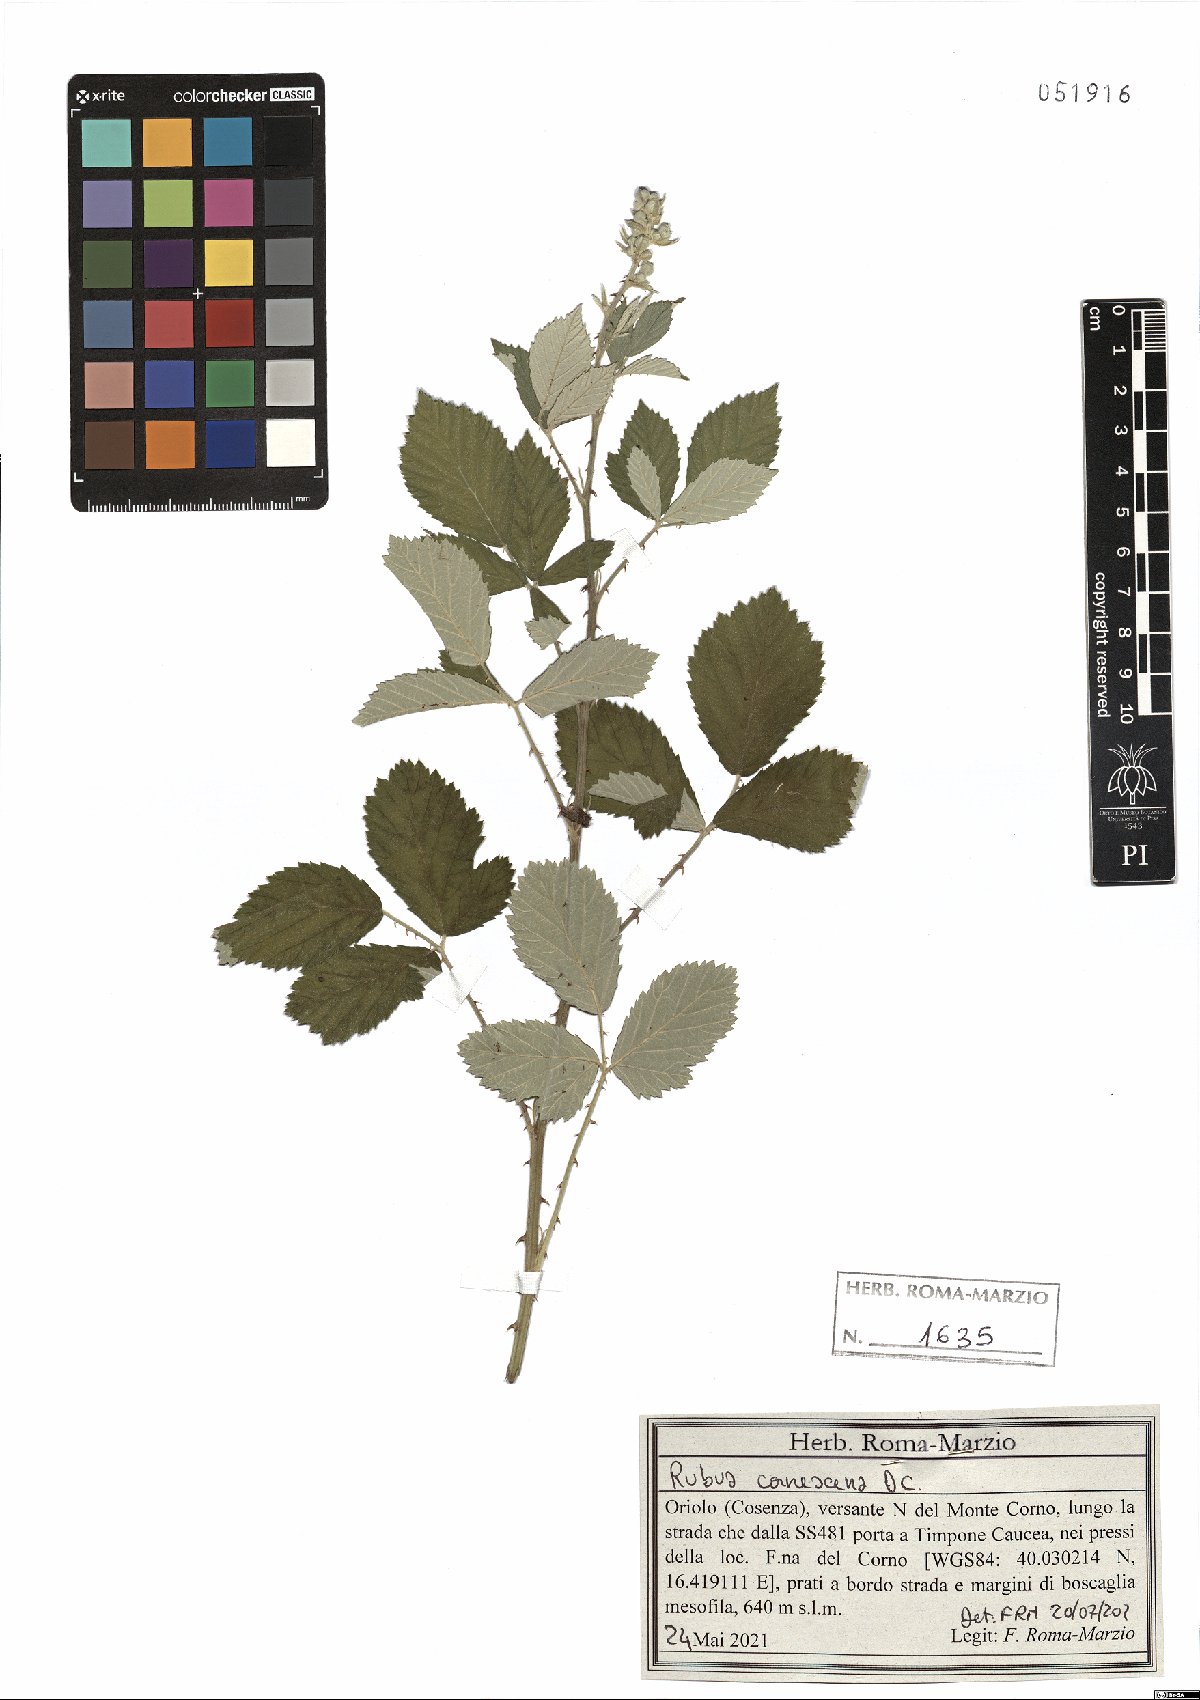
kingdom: Plantae
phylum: Tracheophyta
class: Magnoliopsida
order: Rosales
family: Rosaceae
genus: Rubus
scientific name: Rubus canescens
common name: Wooly blackberry
